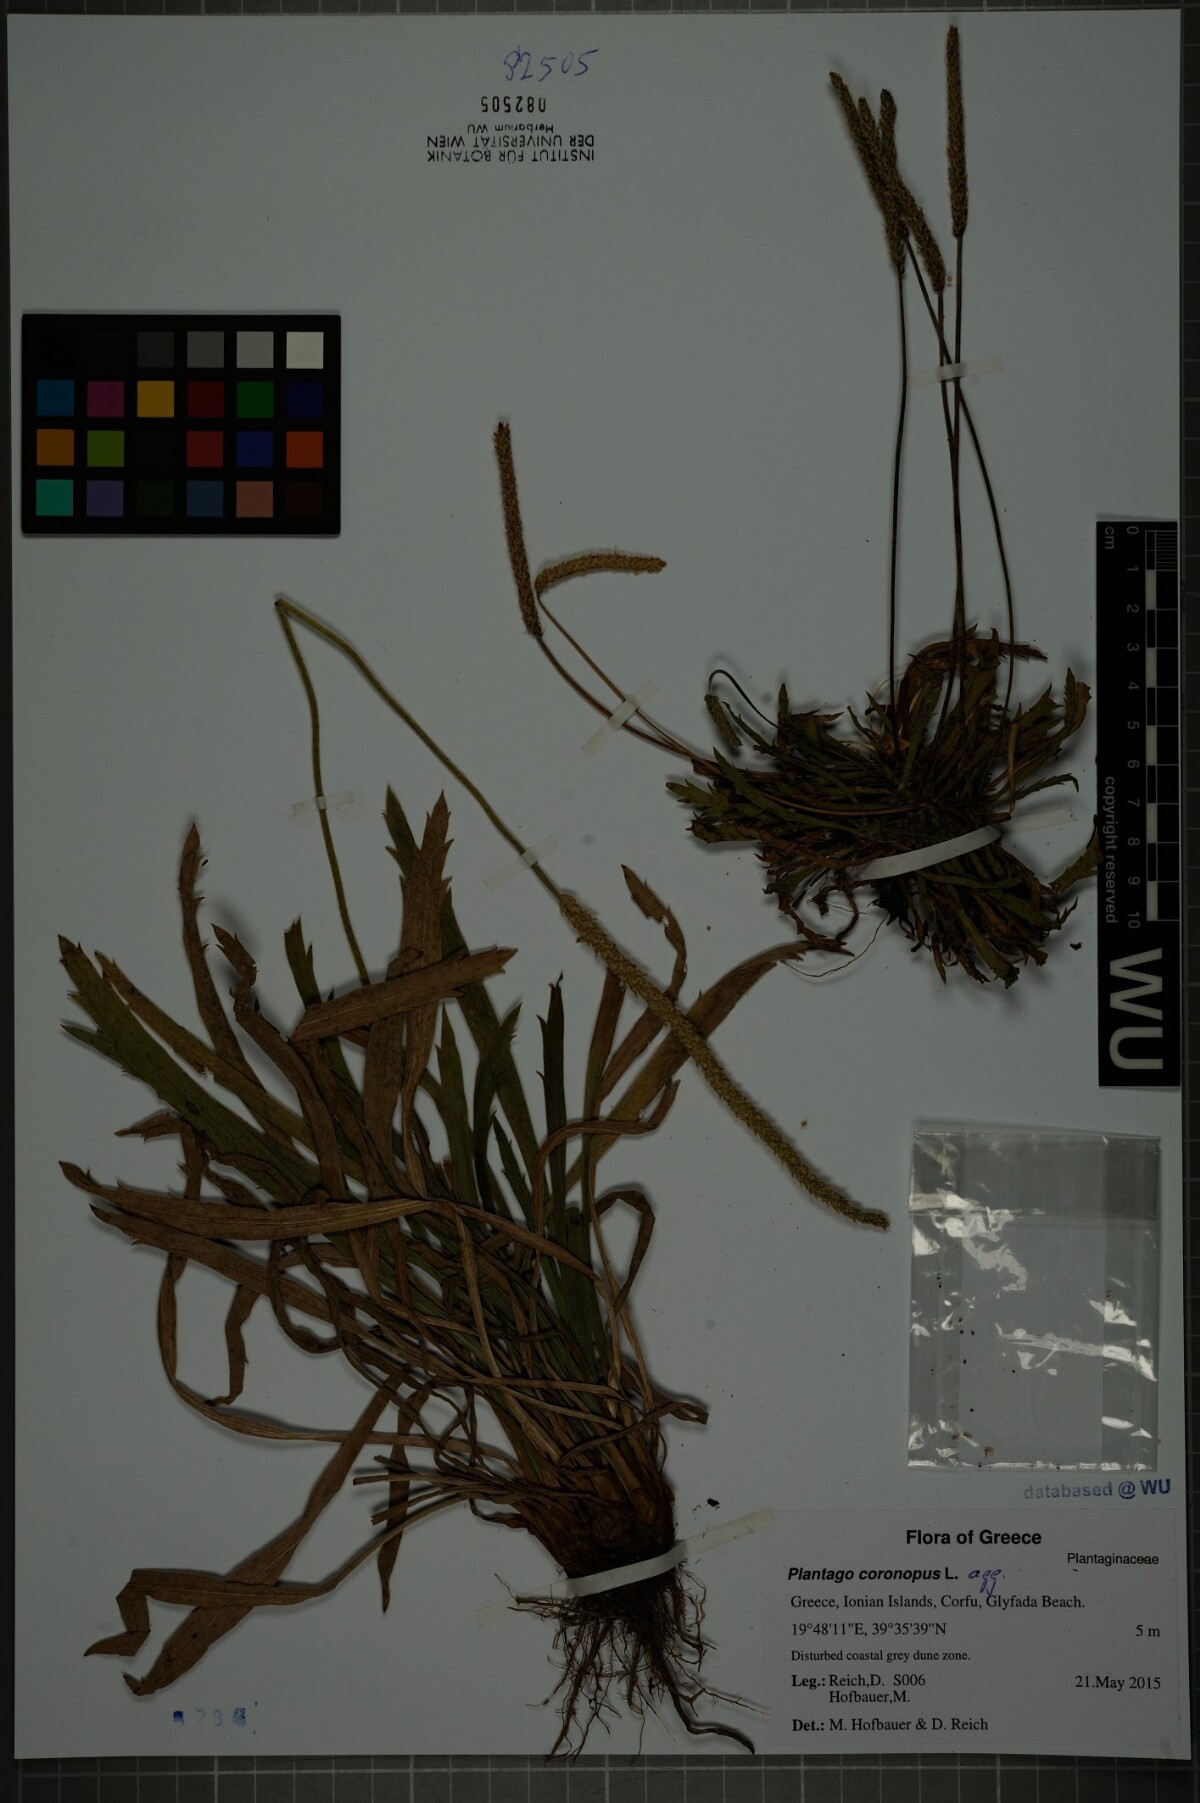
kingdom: Plantae
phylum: Tracheophyta
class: Magnoliopsida
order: Lamiales
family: Plantaginaceae
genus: Plantago
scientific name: Plantago coronopus
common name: Buck's-horn plantain
